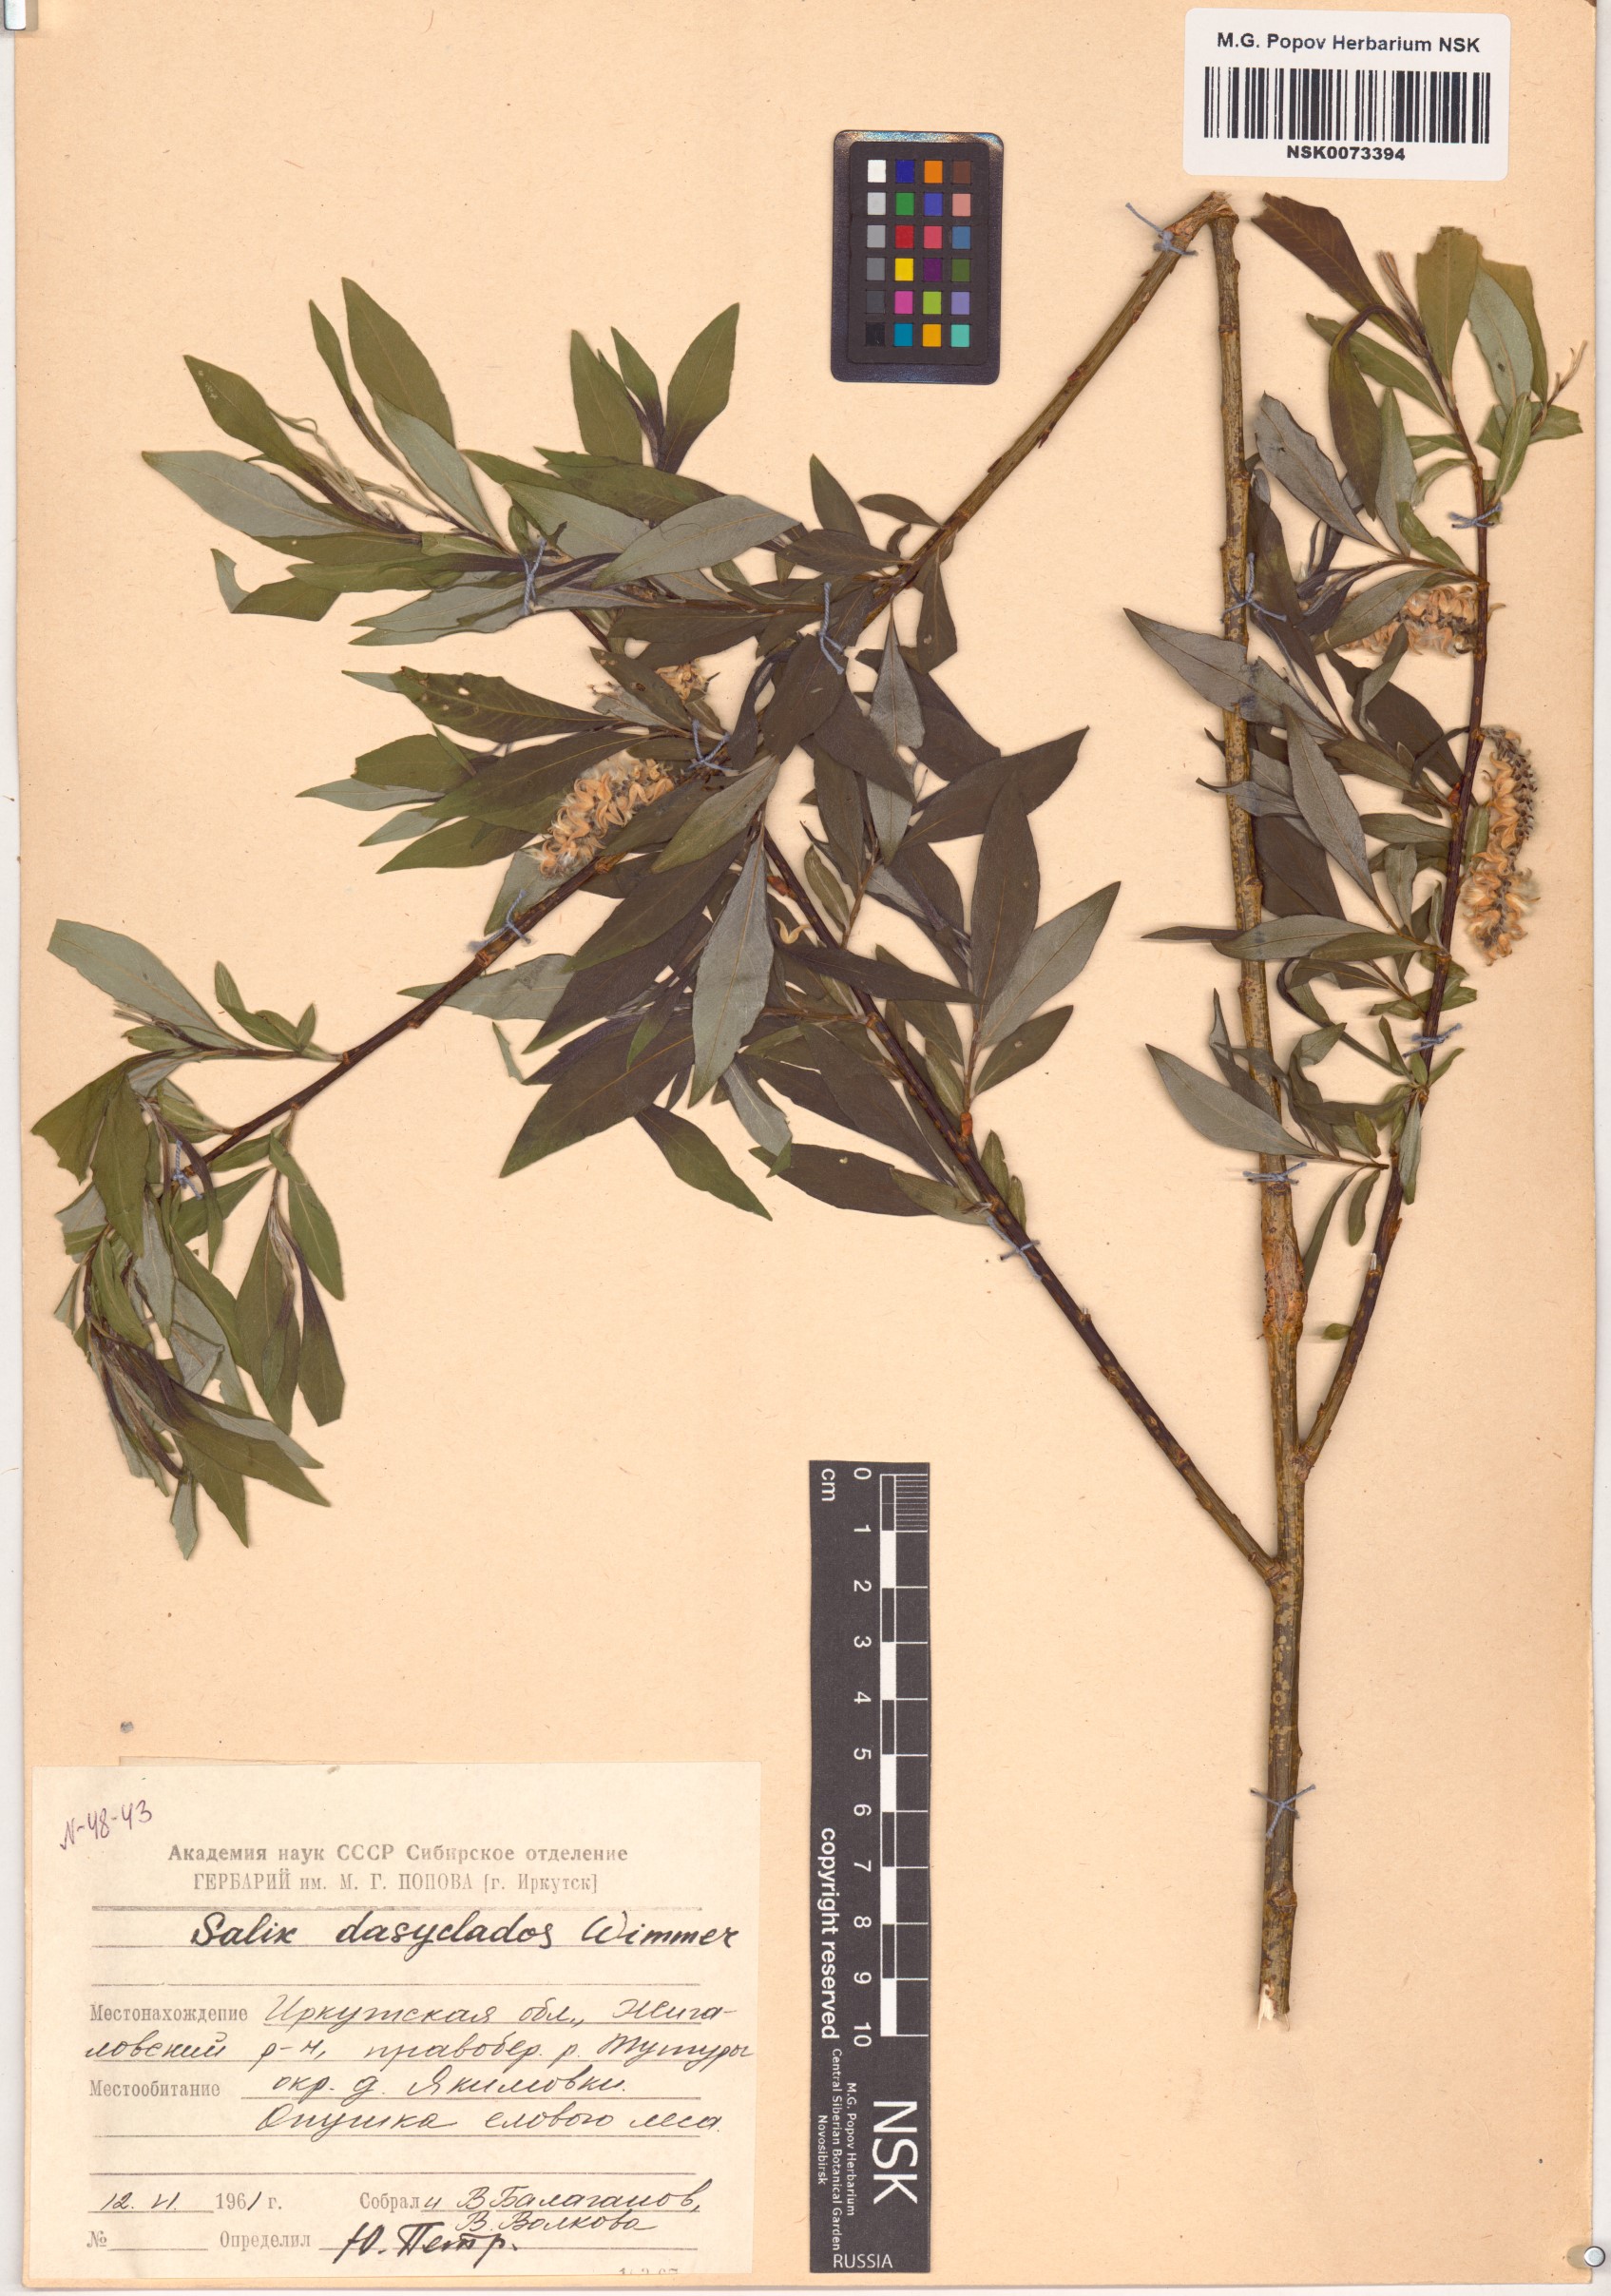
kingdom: Plantae
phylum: Tracheophyta
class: Magnoliopsida
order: Malpighiales
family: Salicaceae
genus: Salix
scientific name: Salix gmelinii
